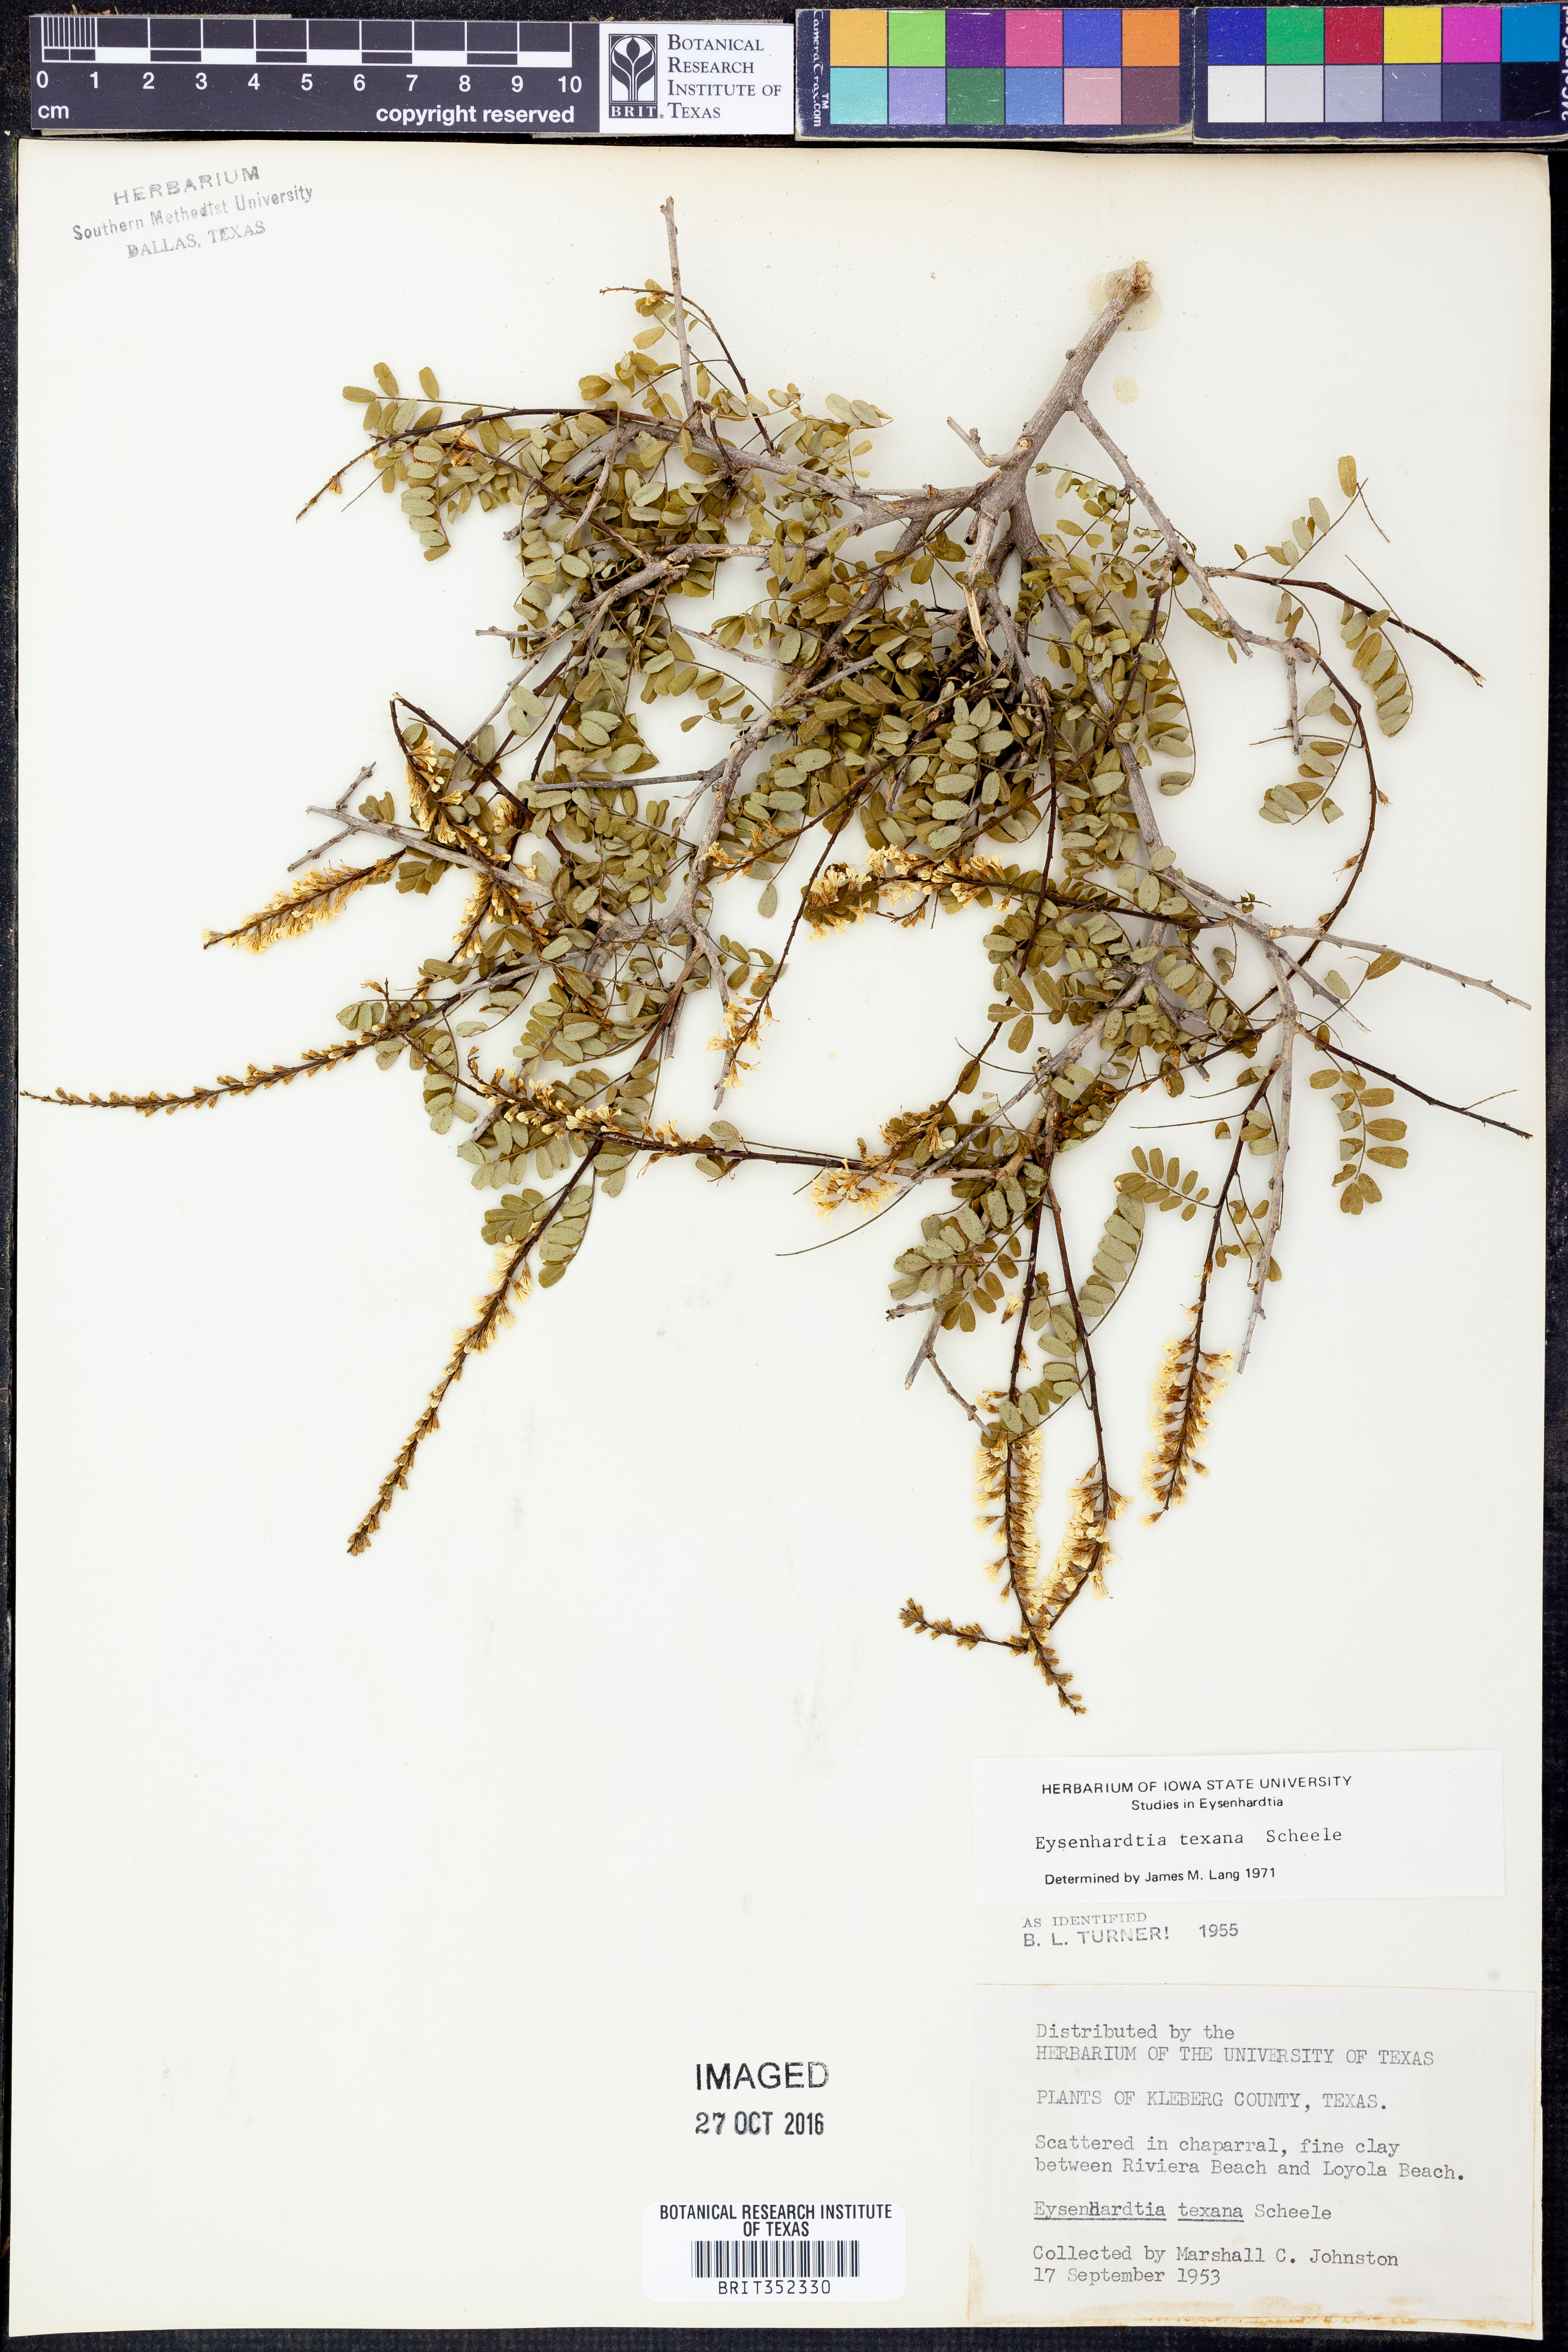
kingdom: Plantae
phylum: Tracheophyta
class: Magnoliopsida
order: Fabales
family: Fabaceae
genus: Eysenhardtia
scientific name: Eysenhardtia texana
